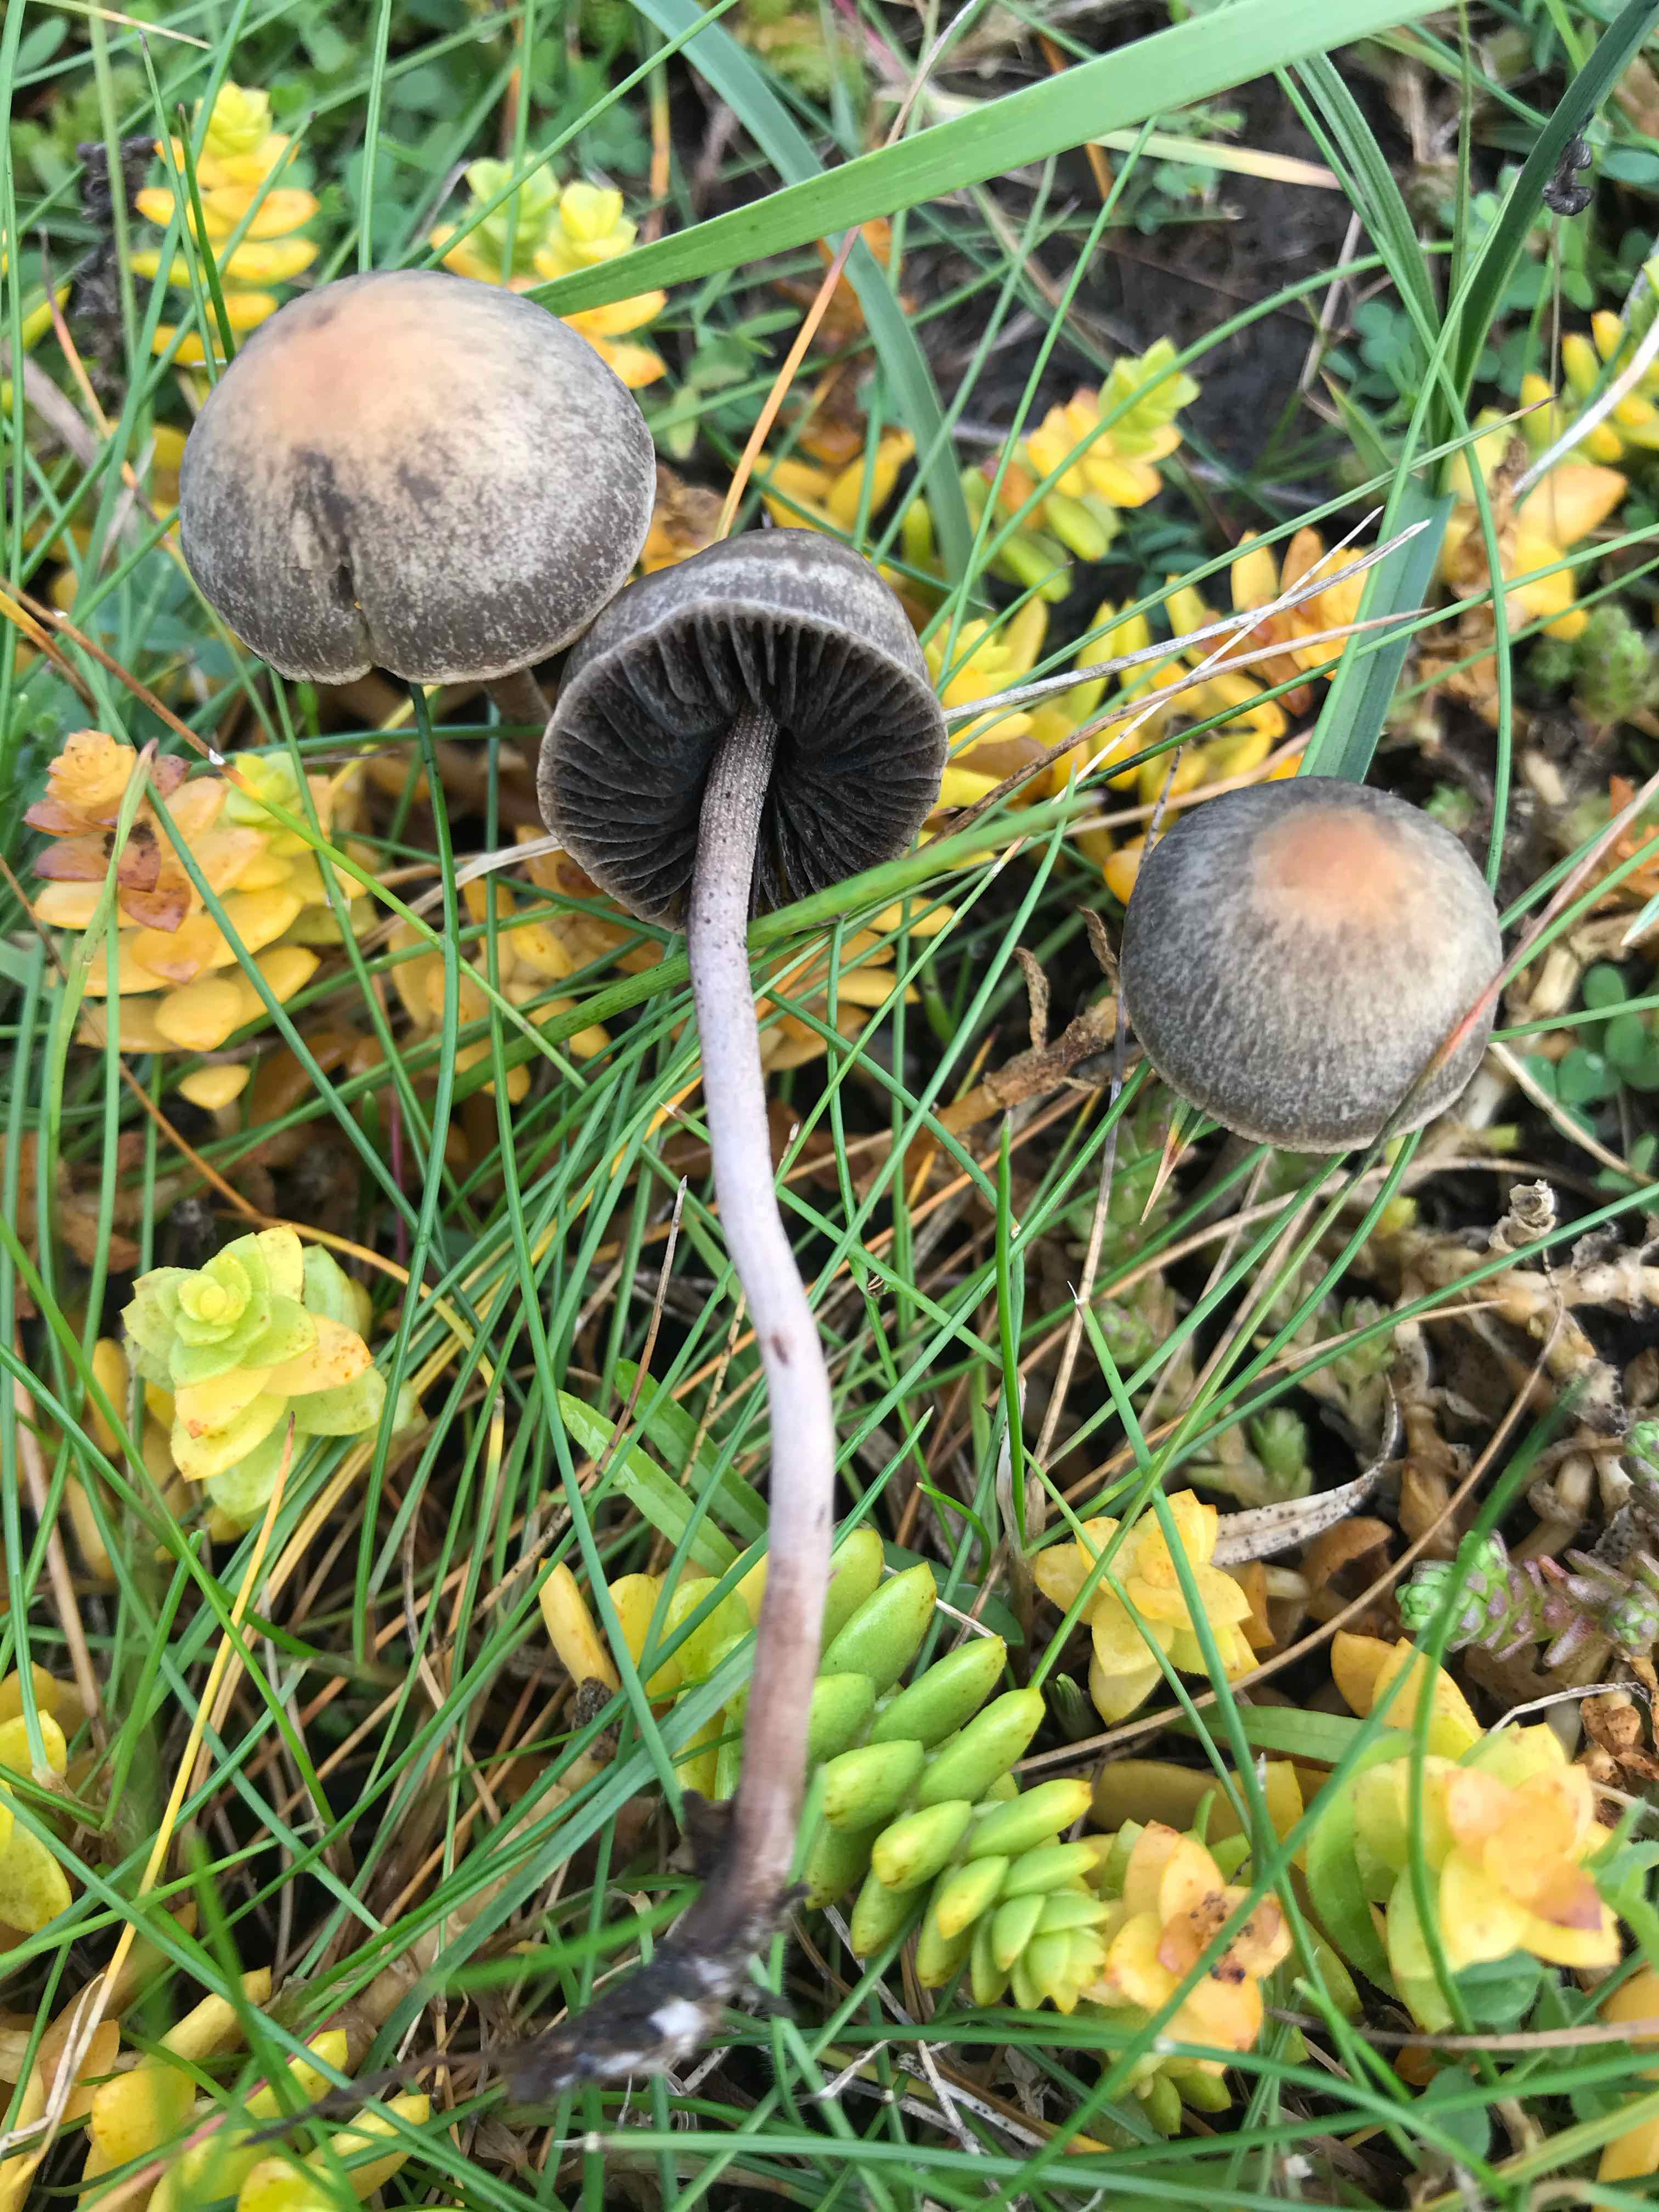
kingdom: Fungi
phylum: Basidiomycota
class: Agaricomycetes
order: Agaricales
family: Bolbitiaceae
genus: Panaeolus
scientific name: Panaeolus
